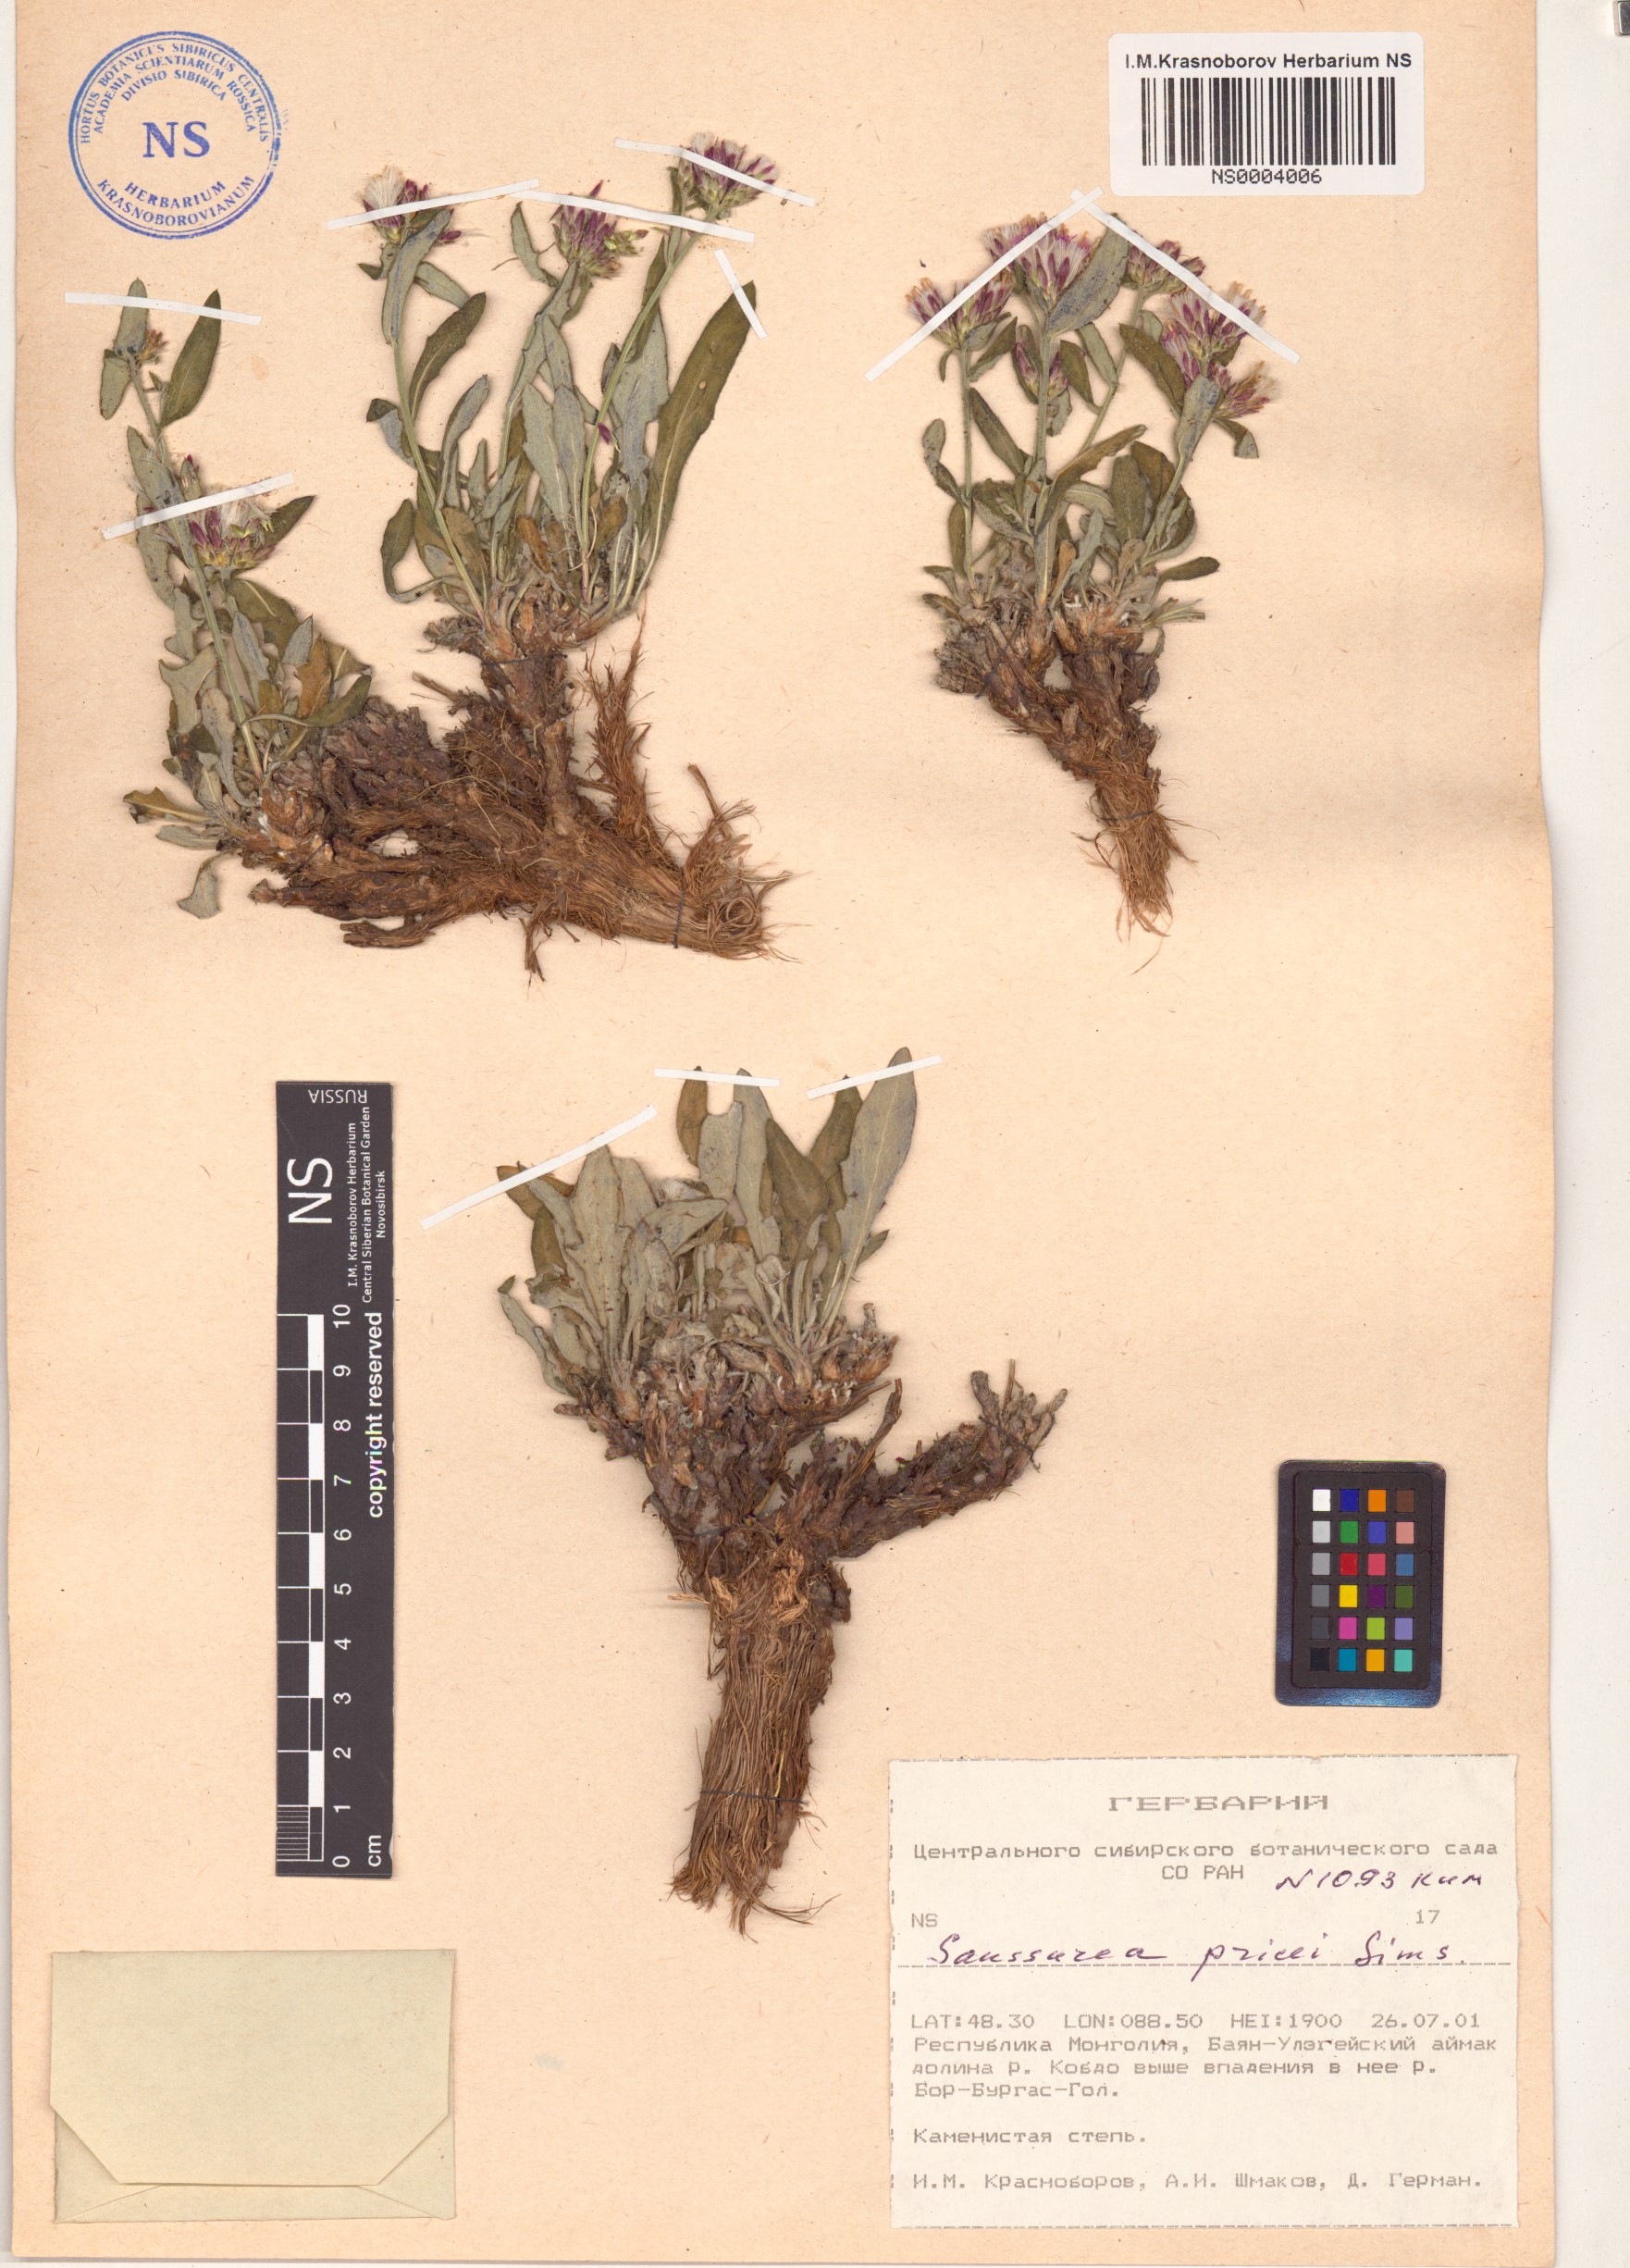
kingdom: Plantae
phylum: Tracheophyta
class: Magnoliopsida
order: Asterales
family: Asteraceae
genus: Saussurea
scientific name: Saussurea pricei
